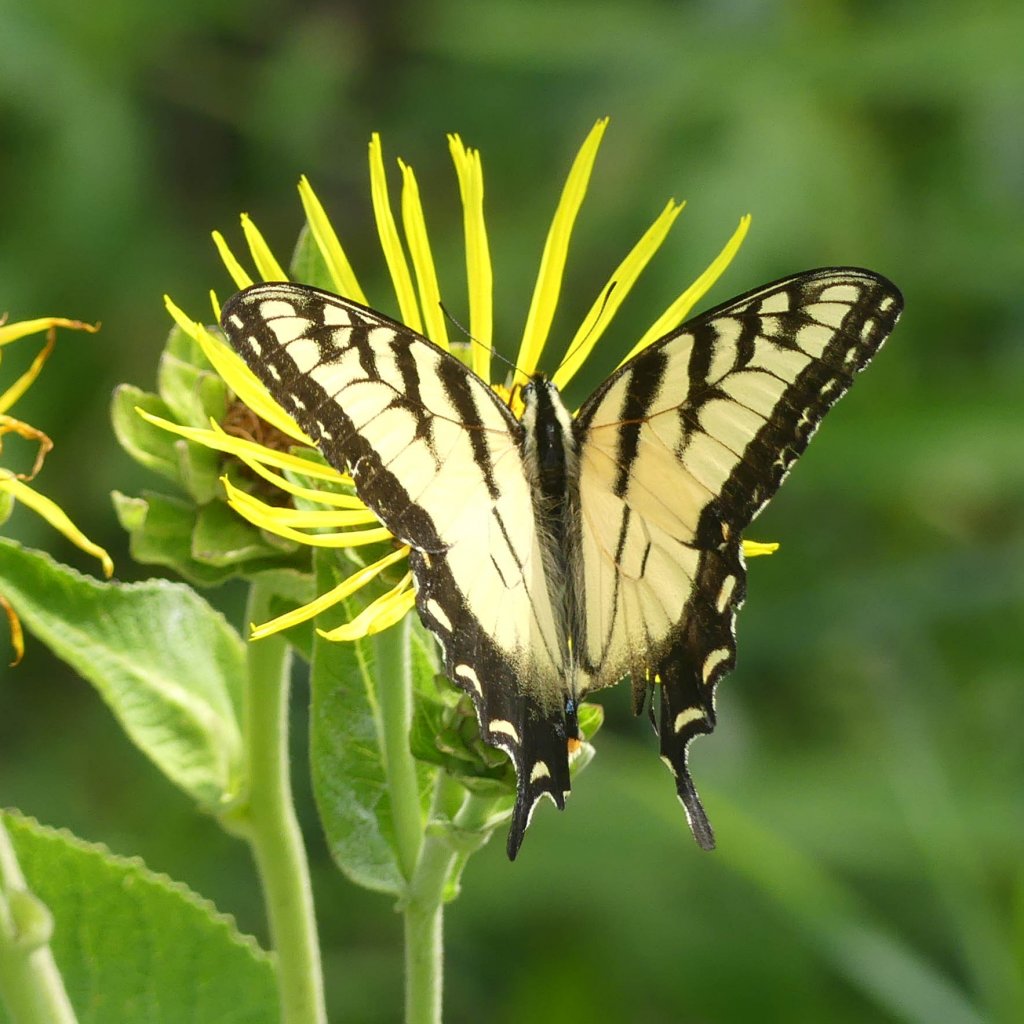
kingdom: Animalia
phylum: Arthropoda
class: Insecta
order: Lepidoptera
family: Papilionidae
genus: Pterourus
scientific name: Pterourus glaucus
